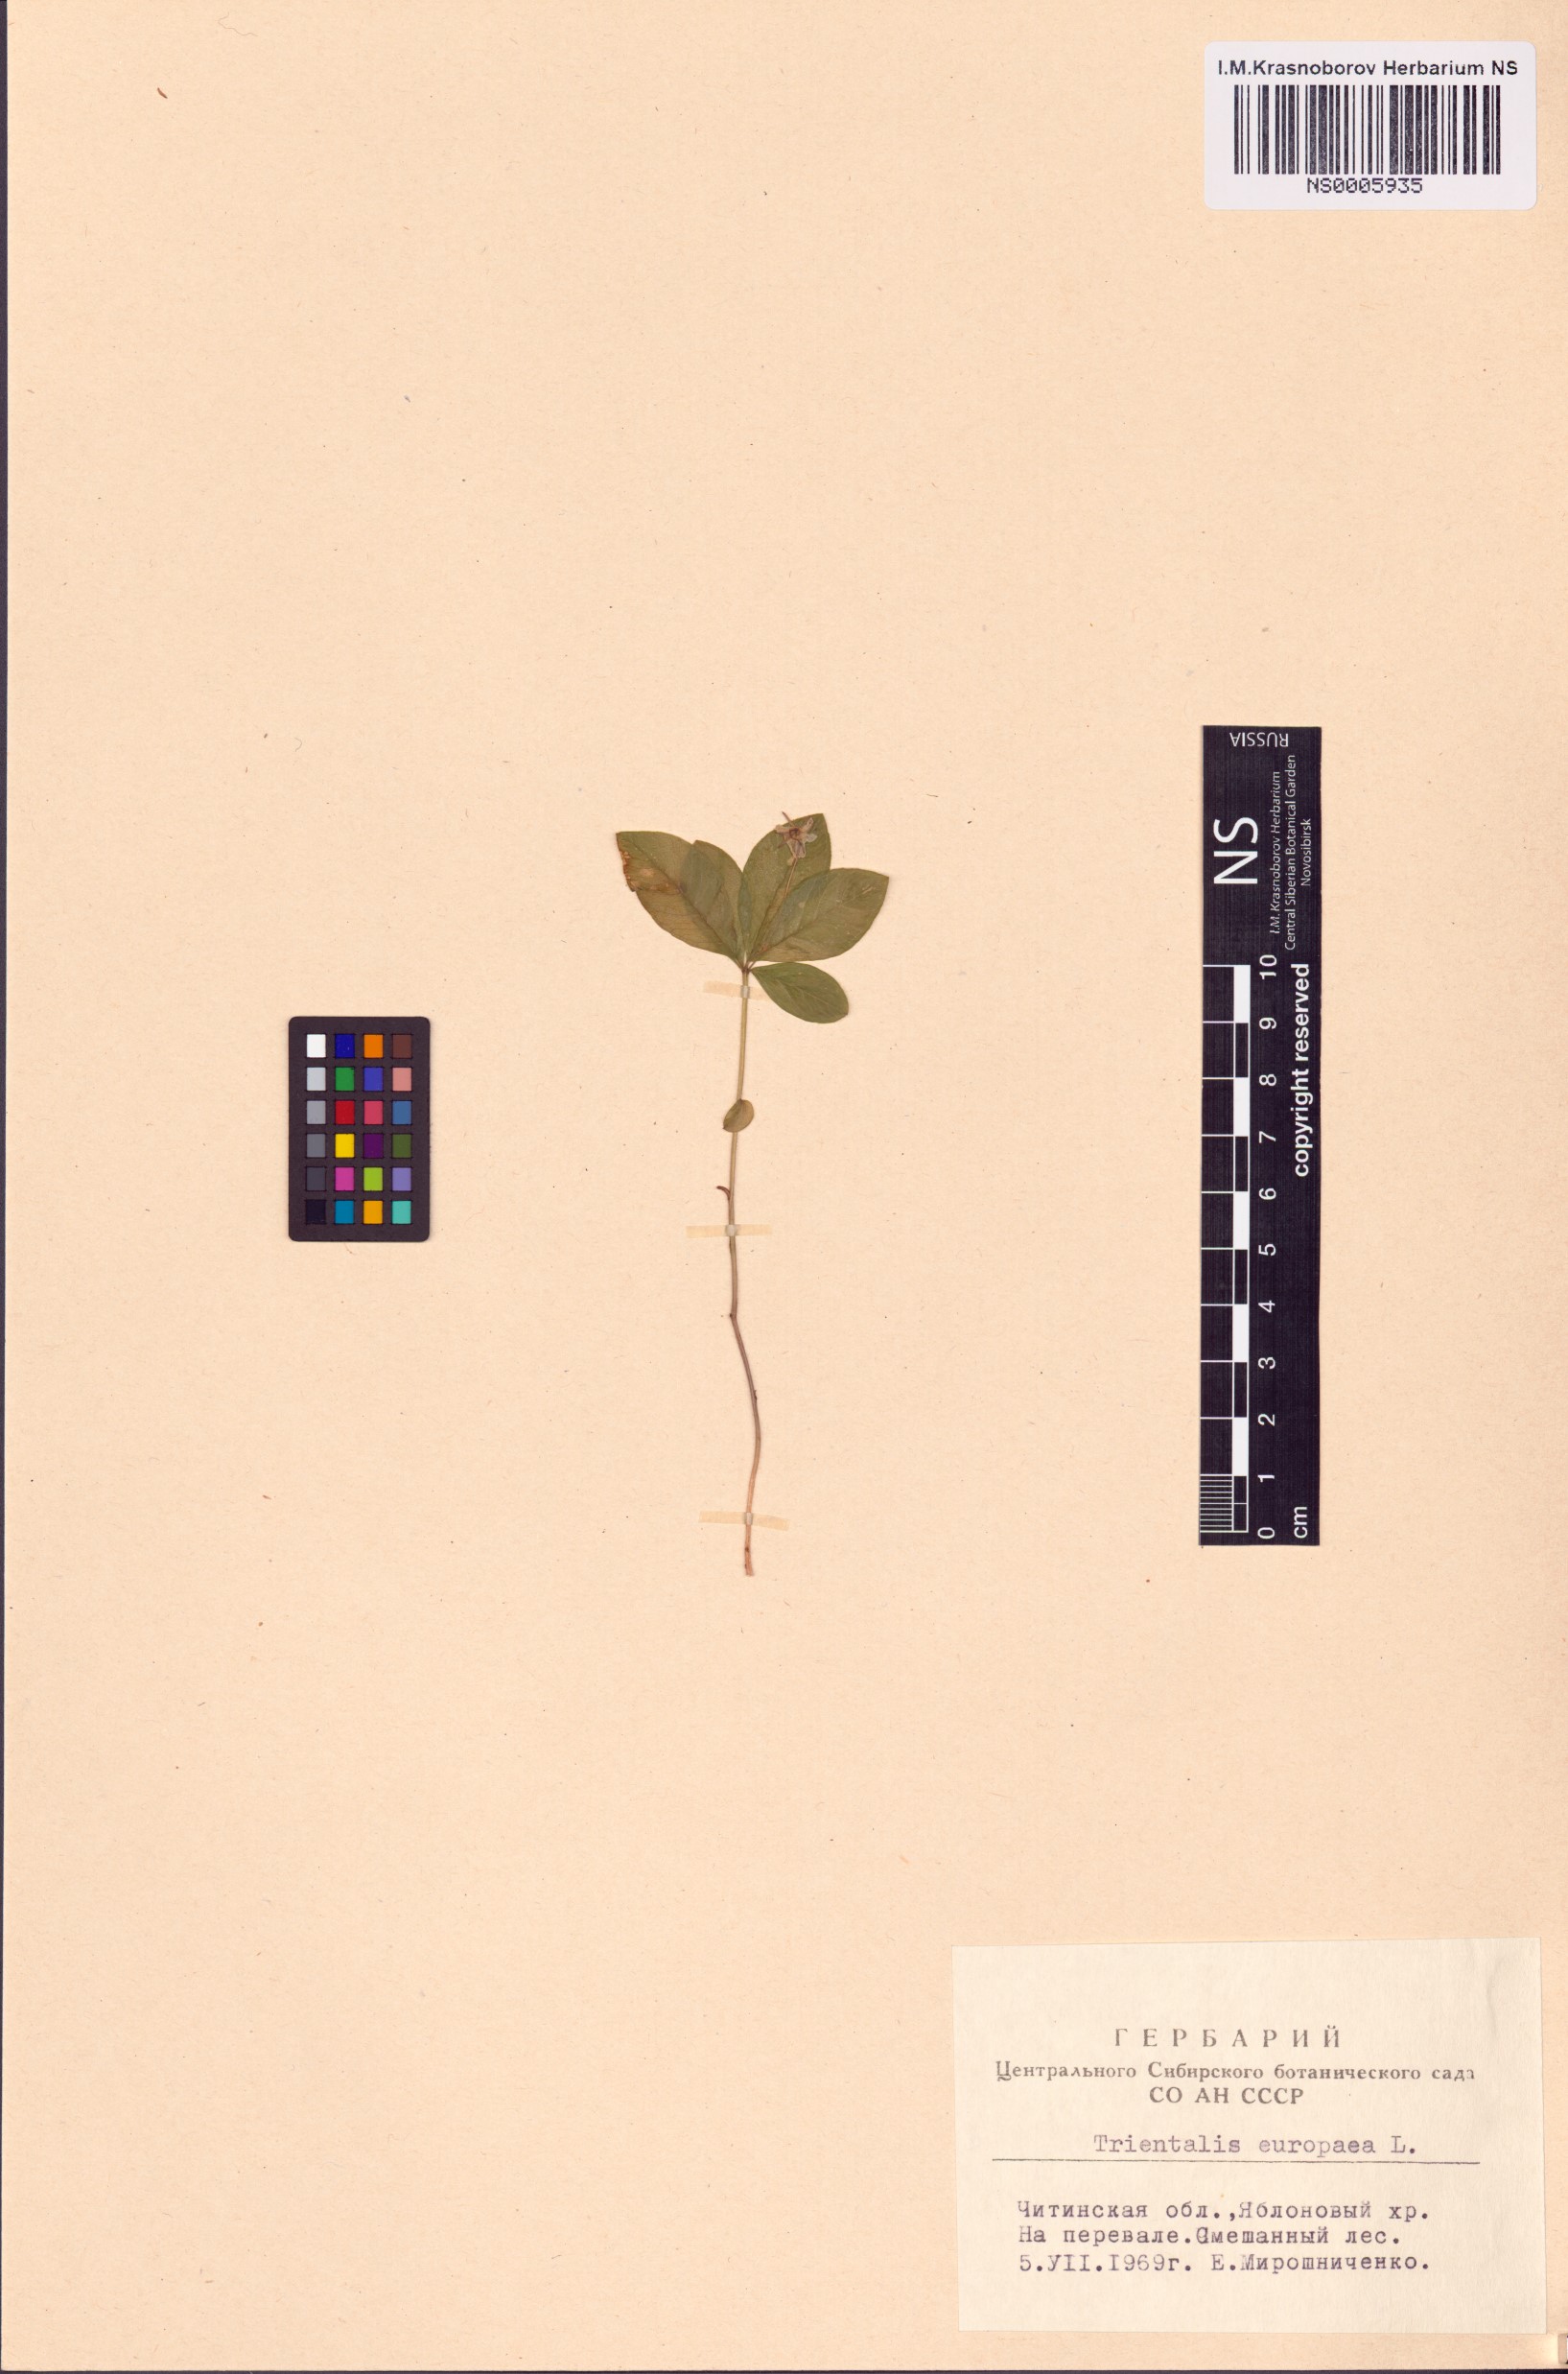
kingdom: Plantae
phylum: Tracheophyta
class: Magnoliopsida
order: Ericales
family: Primulaceae
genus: Lysimachia
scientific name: Lysimachia europaea
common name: Arctic starflower
